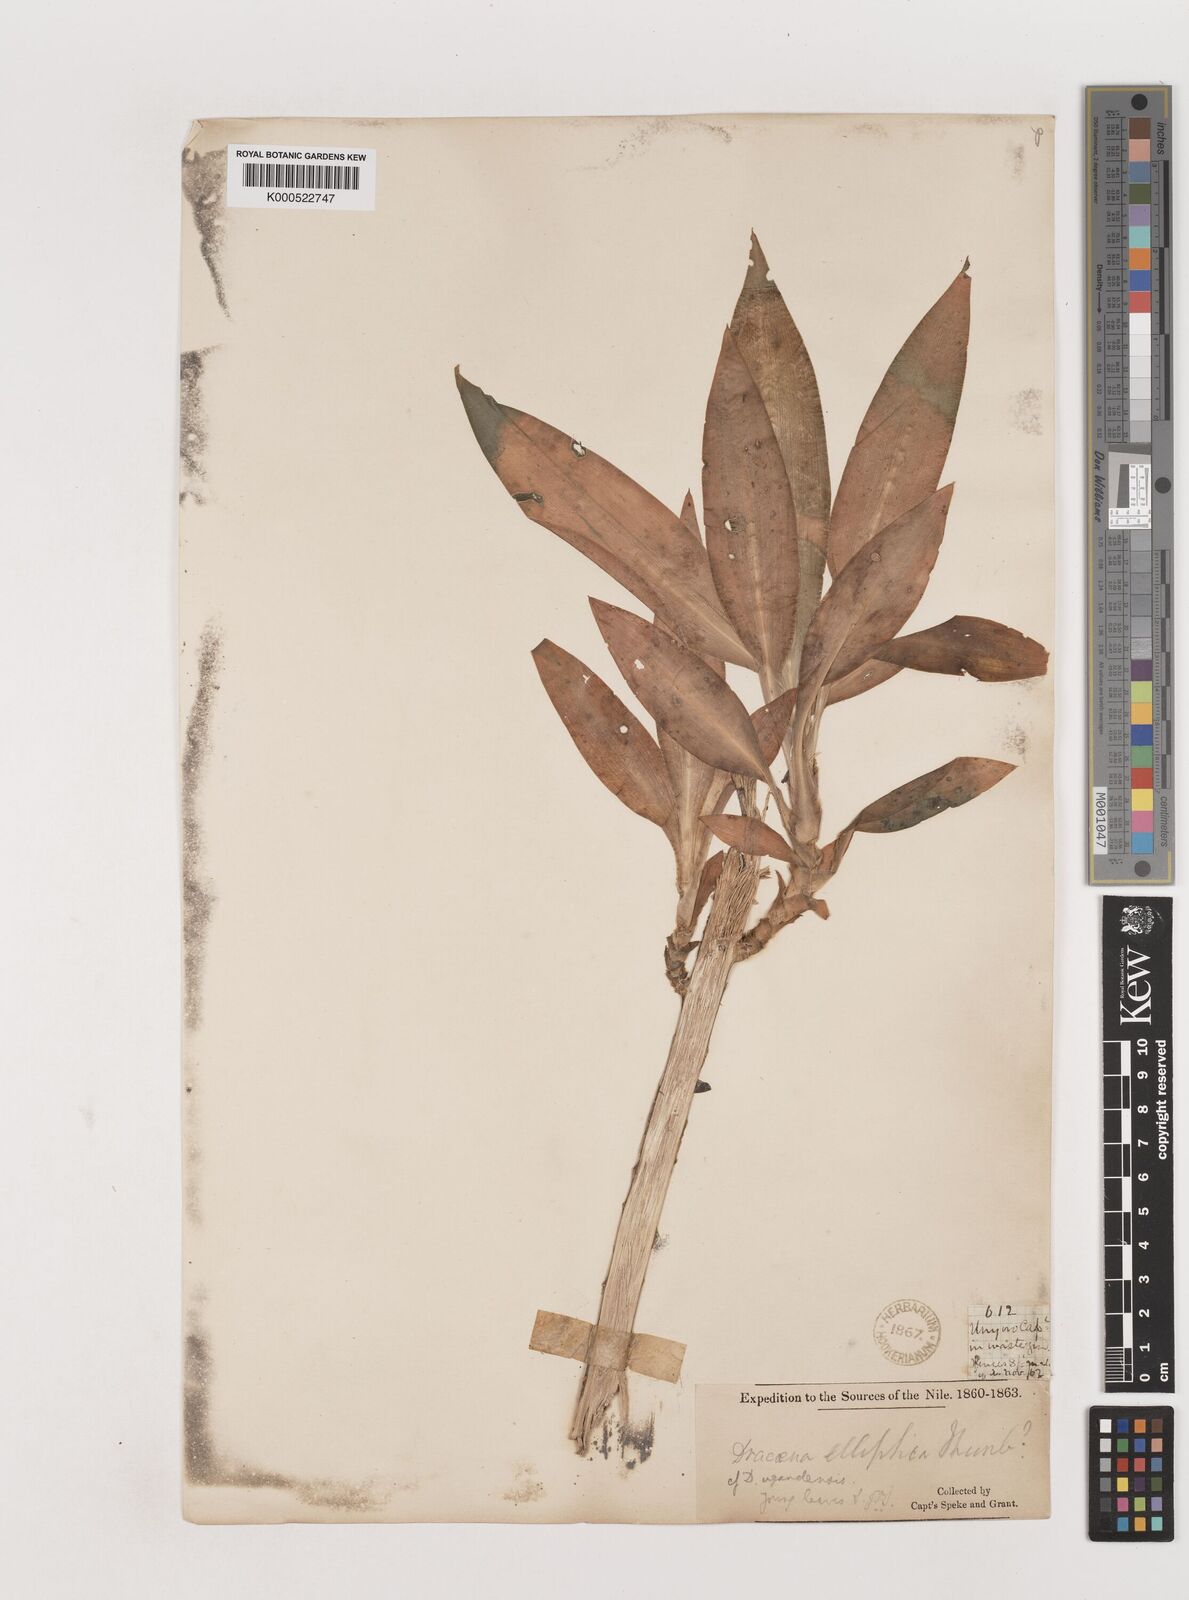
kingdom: Plantae
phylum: Tracheophyta
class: Liliopsida
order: Asparagales
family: Asparagaceae
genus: Dracaena
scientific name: Dracaena fragrans
